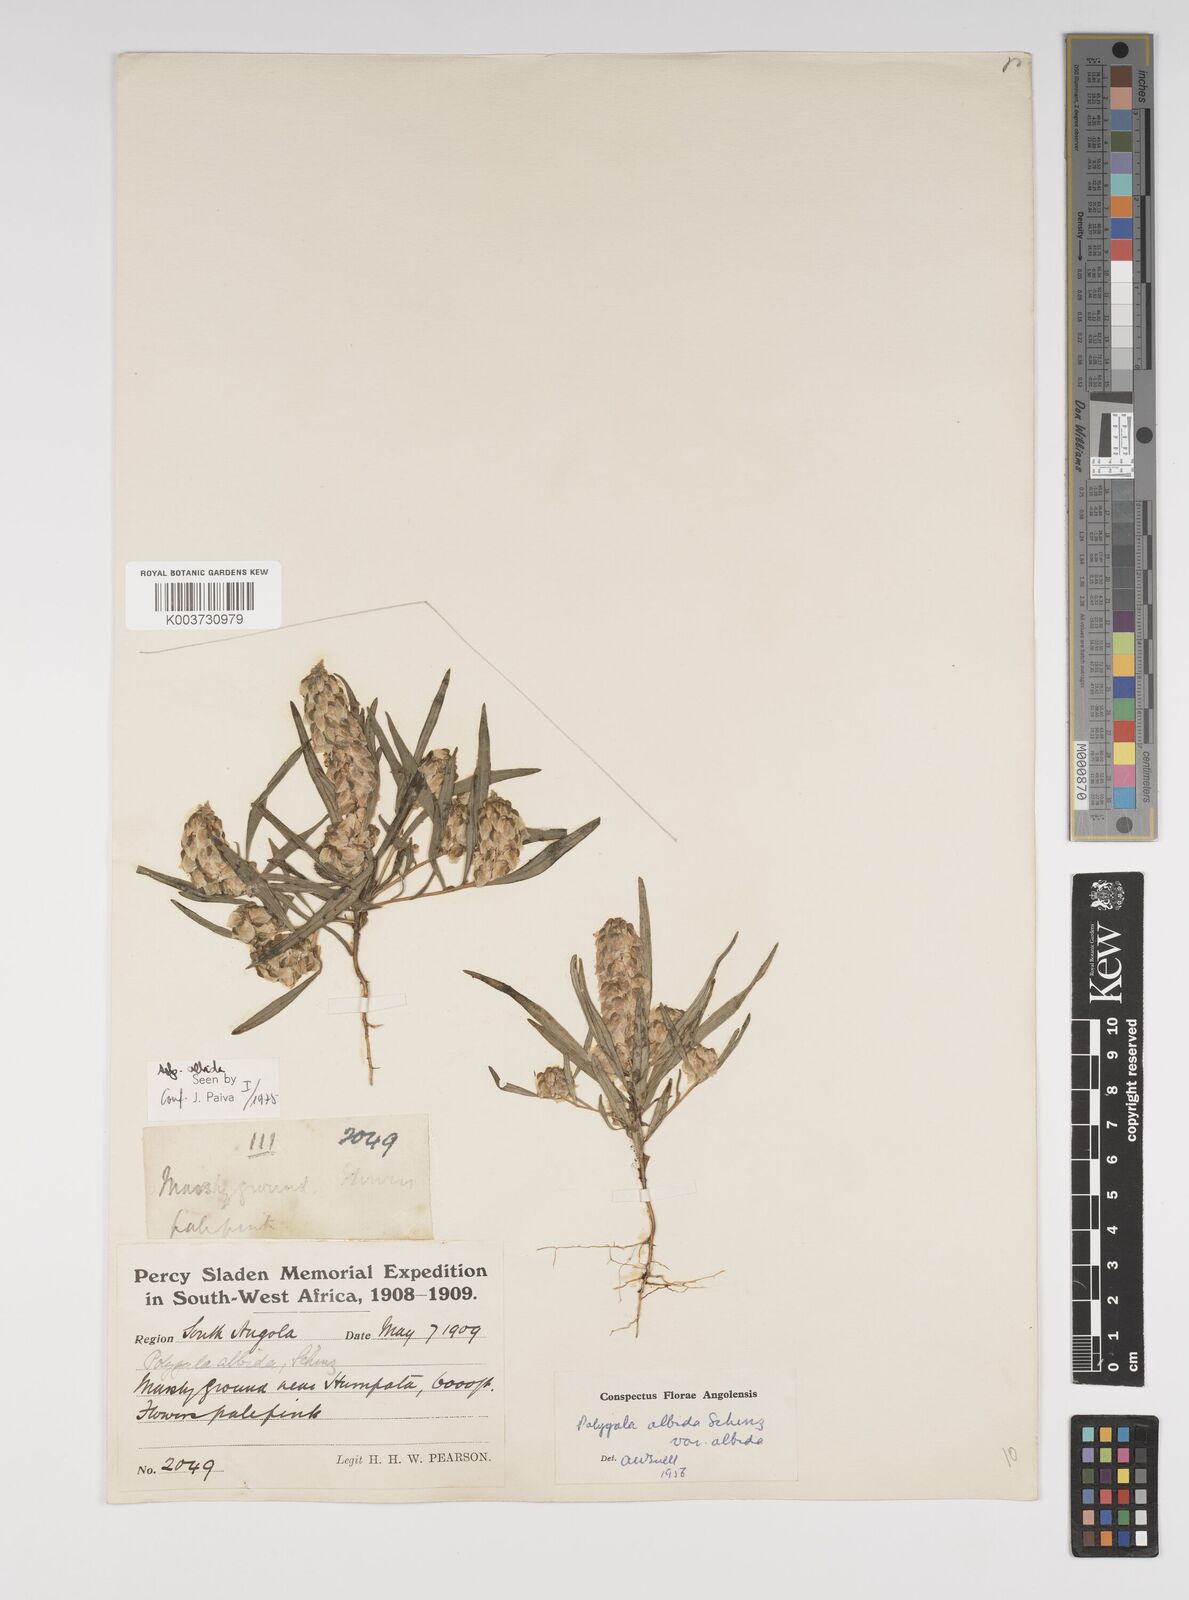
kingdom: Plantae
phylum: Tracheophyta
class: Magnoliopsida
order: Fabales
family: Polygalaceae
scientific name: Polygalaceae
